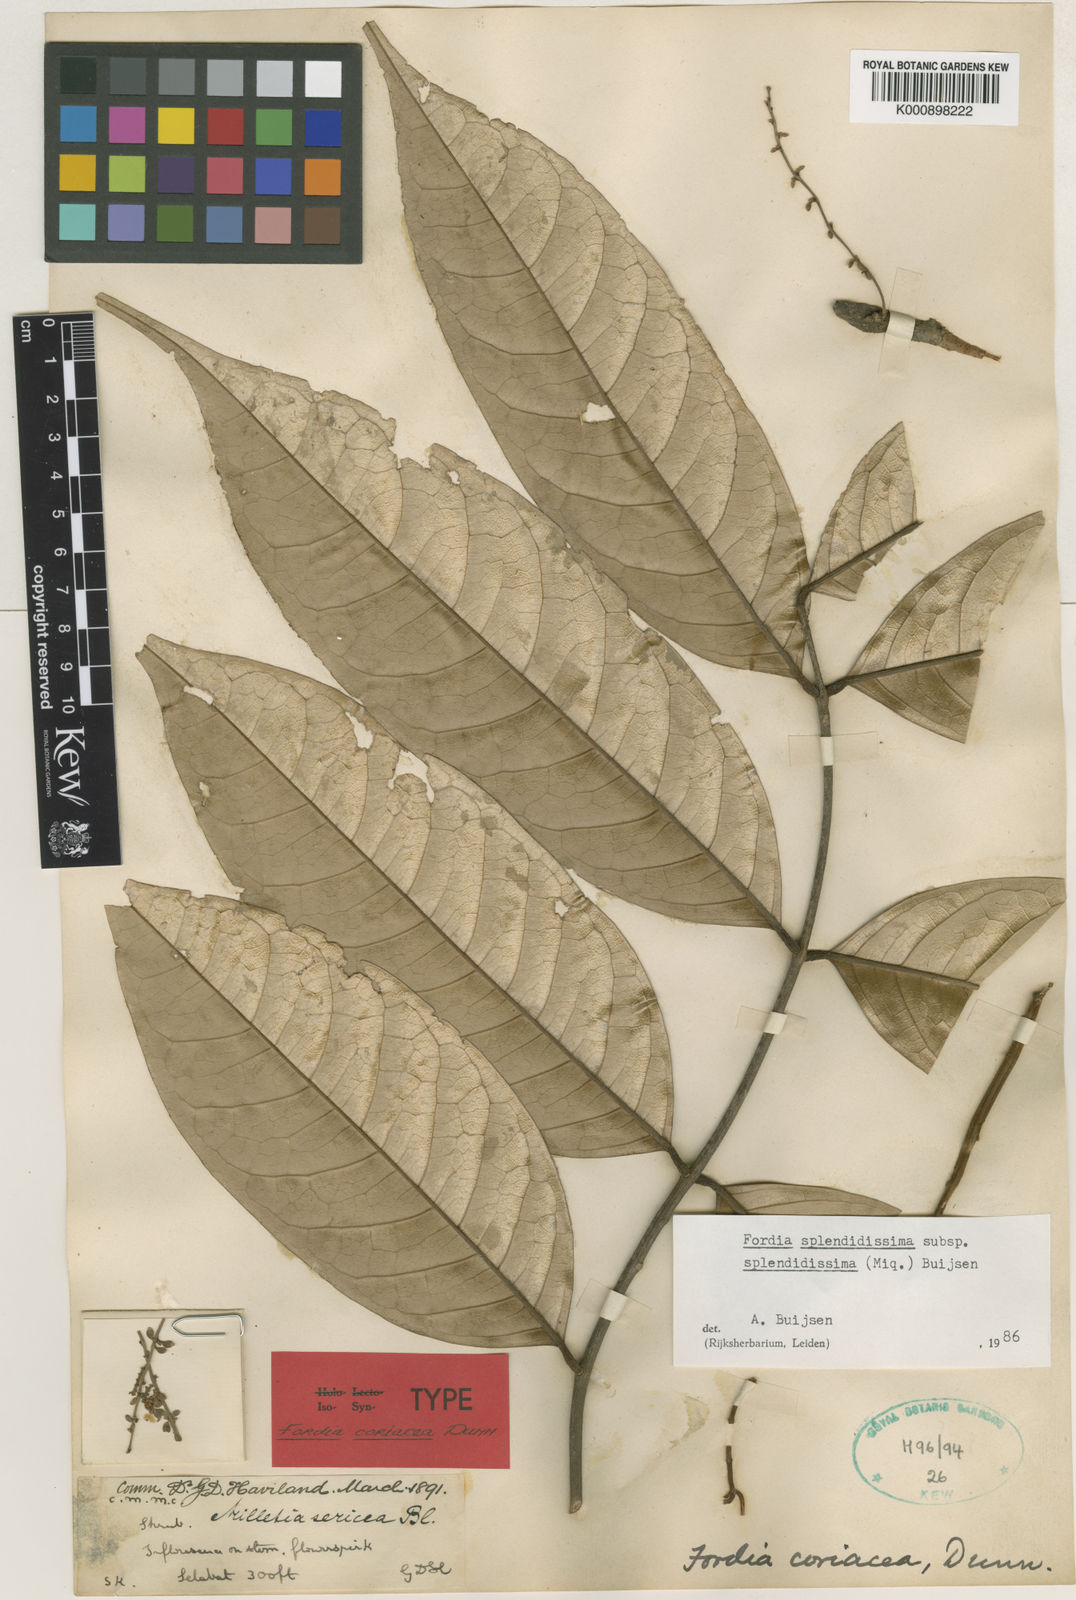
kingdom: Plantae
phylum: Tracheophyta
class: Magnoliopsida
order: Fabales
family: Fabaceae
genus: Fordia
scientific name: Fordia splendidissima
